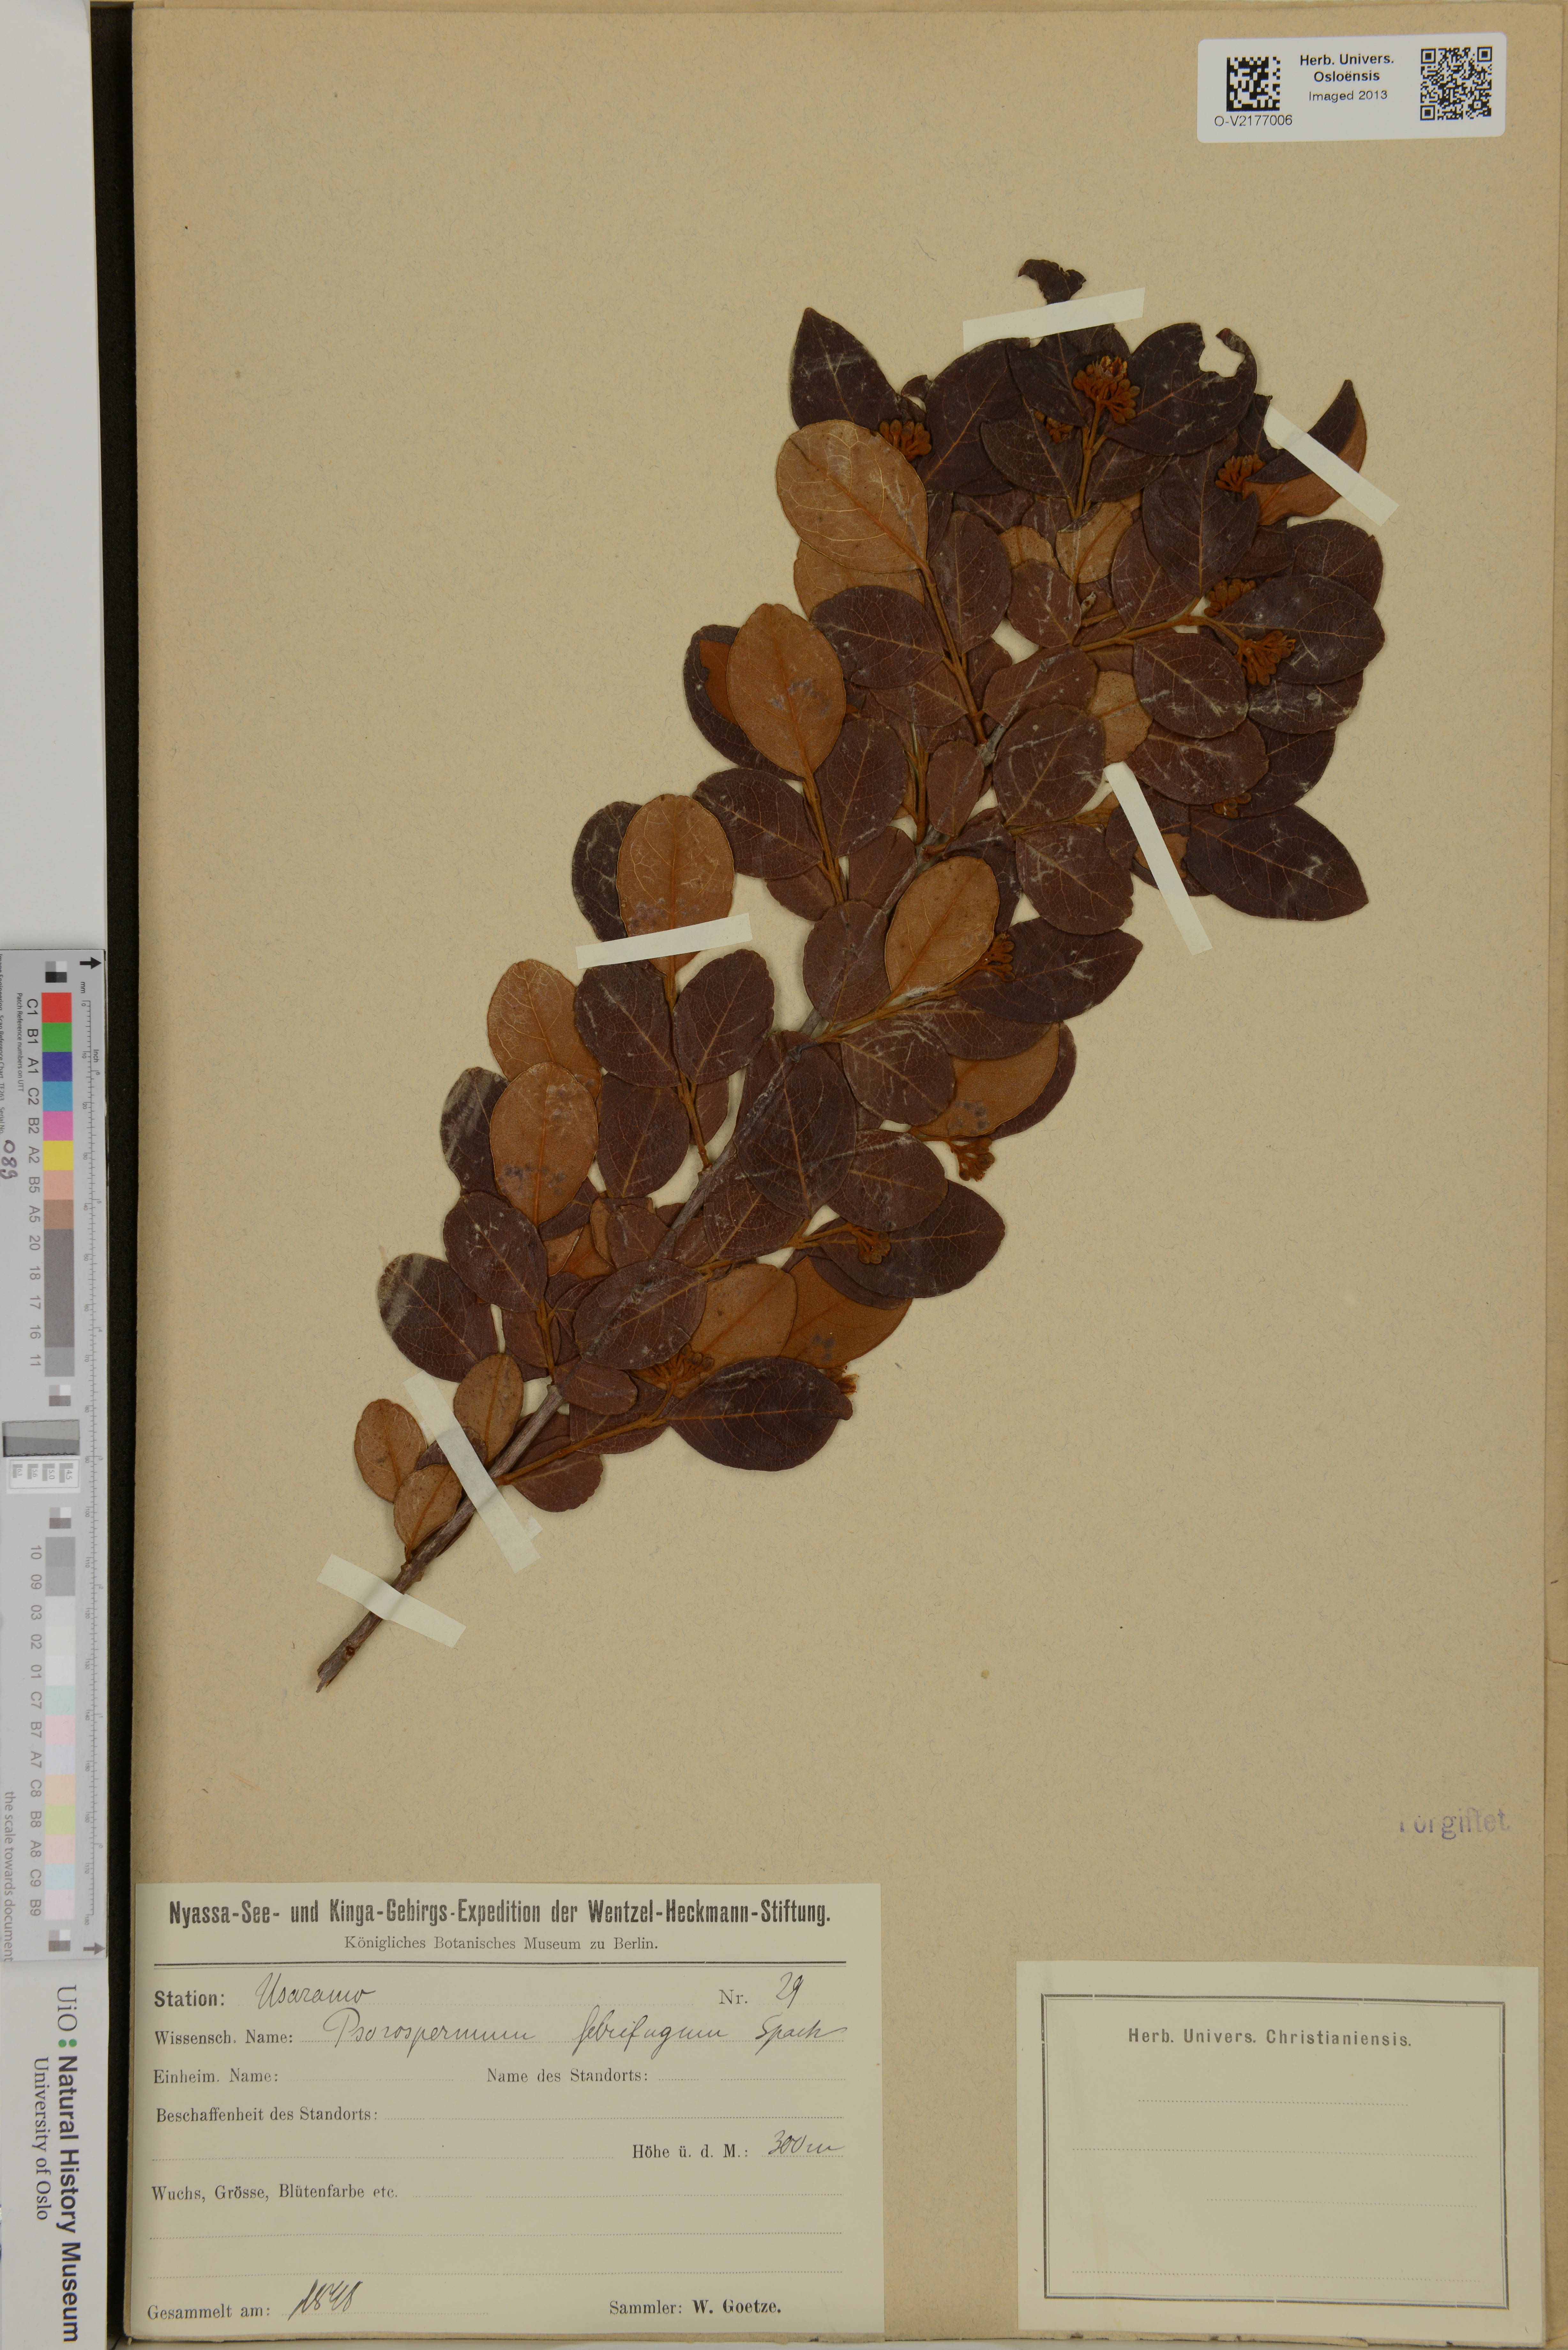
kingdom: Plantae
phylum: Tracheophyta
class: Magnoliopsida
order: Malpighiales
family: Hypericaceae
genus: Psorospermum
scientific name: Psorospermum febrifugum
